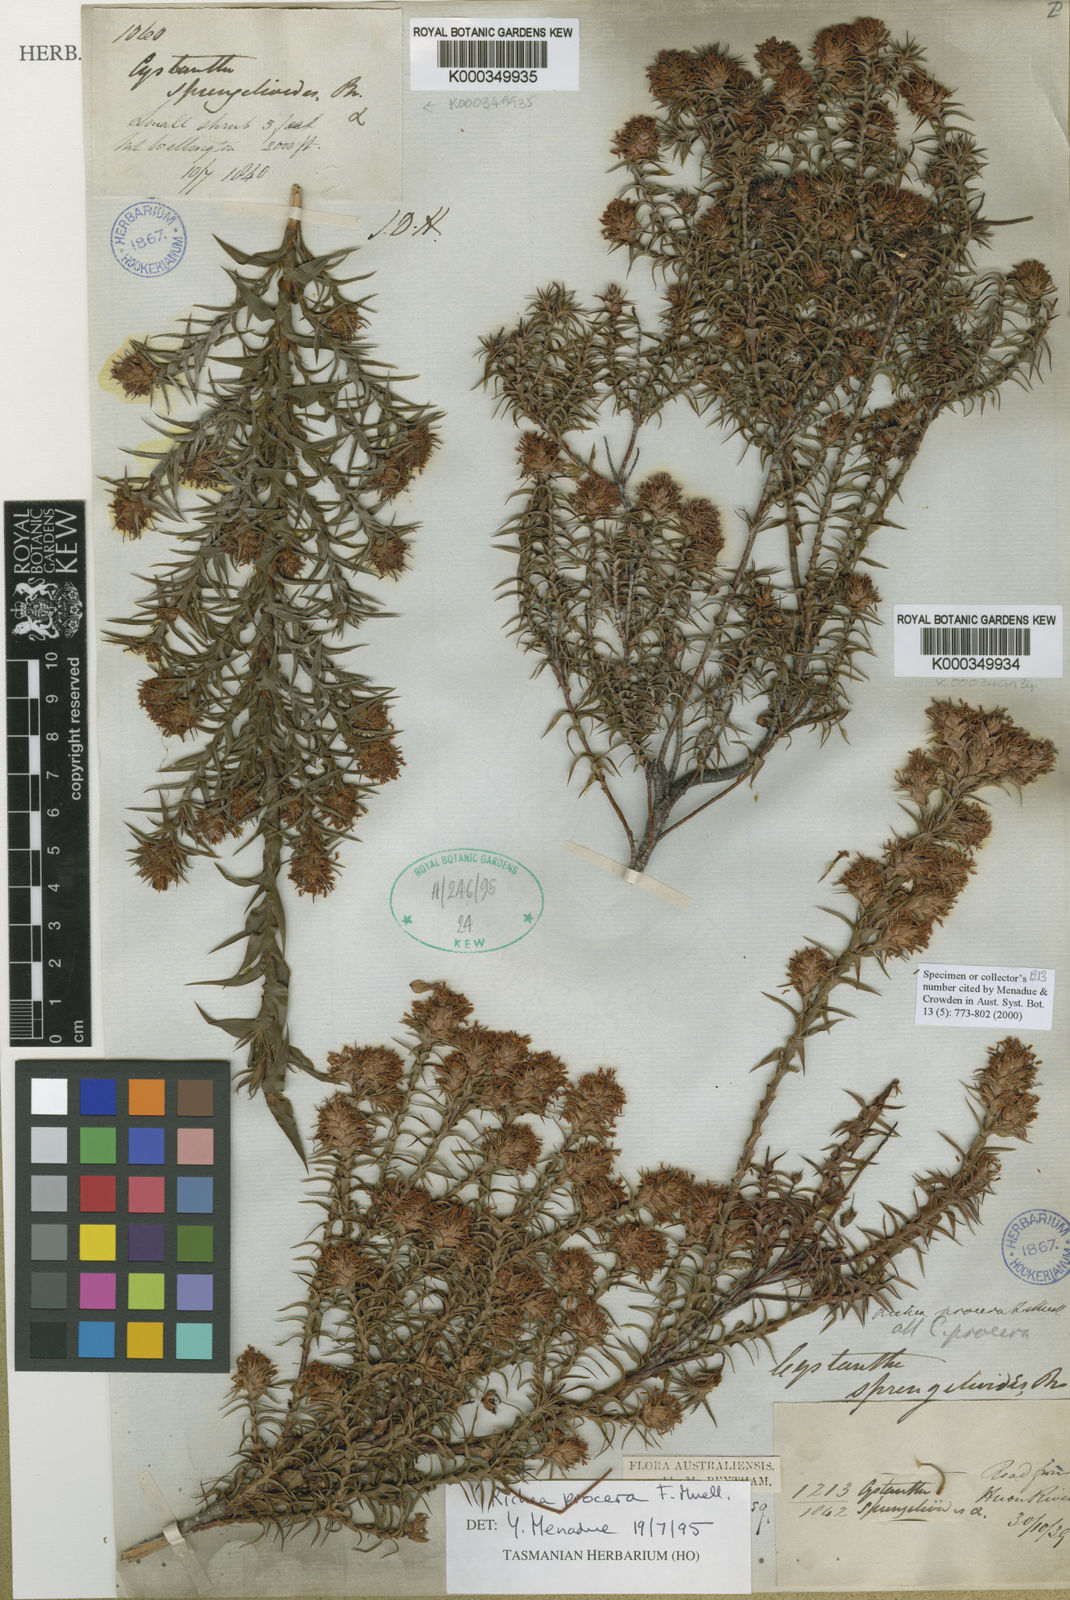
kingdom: Plantae
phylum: Tracheophyta
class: Magnoliopsida
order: Ericales
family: Ericaceae
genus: Dracophyllum
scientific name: Dracophyllum procerum
